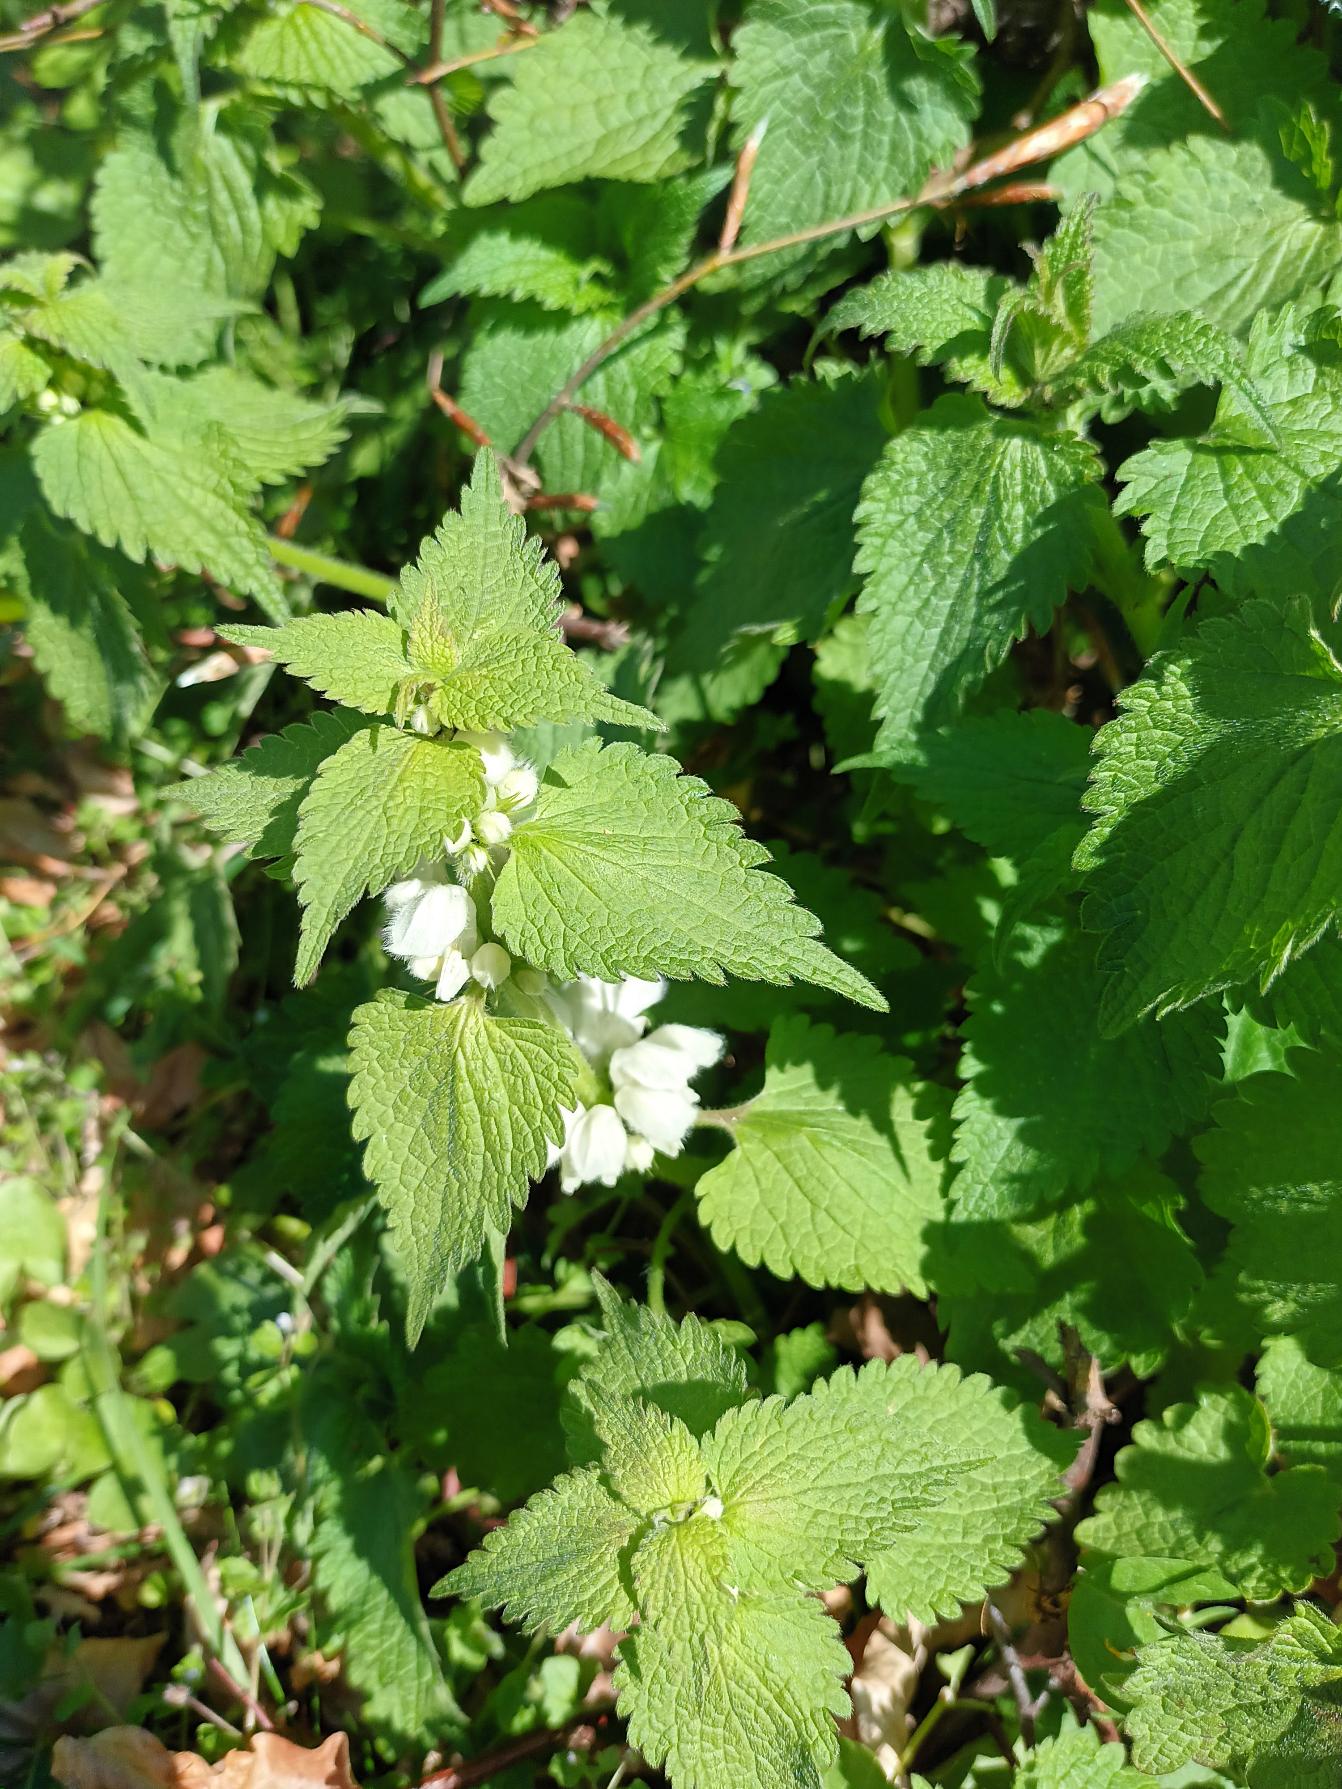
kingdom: Plantae
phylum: Tracheophyta
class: Magnoliopsida
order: Lamiales
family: Lamiaceae
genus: Lamium
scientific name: Lamium album
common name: Døvnælde
